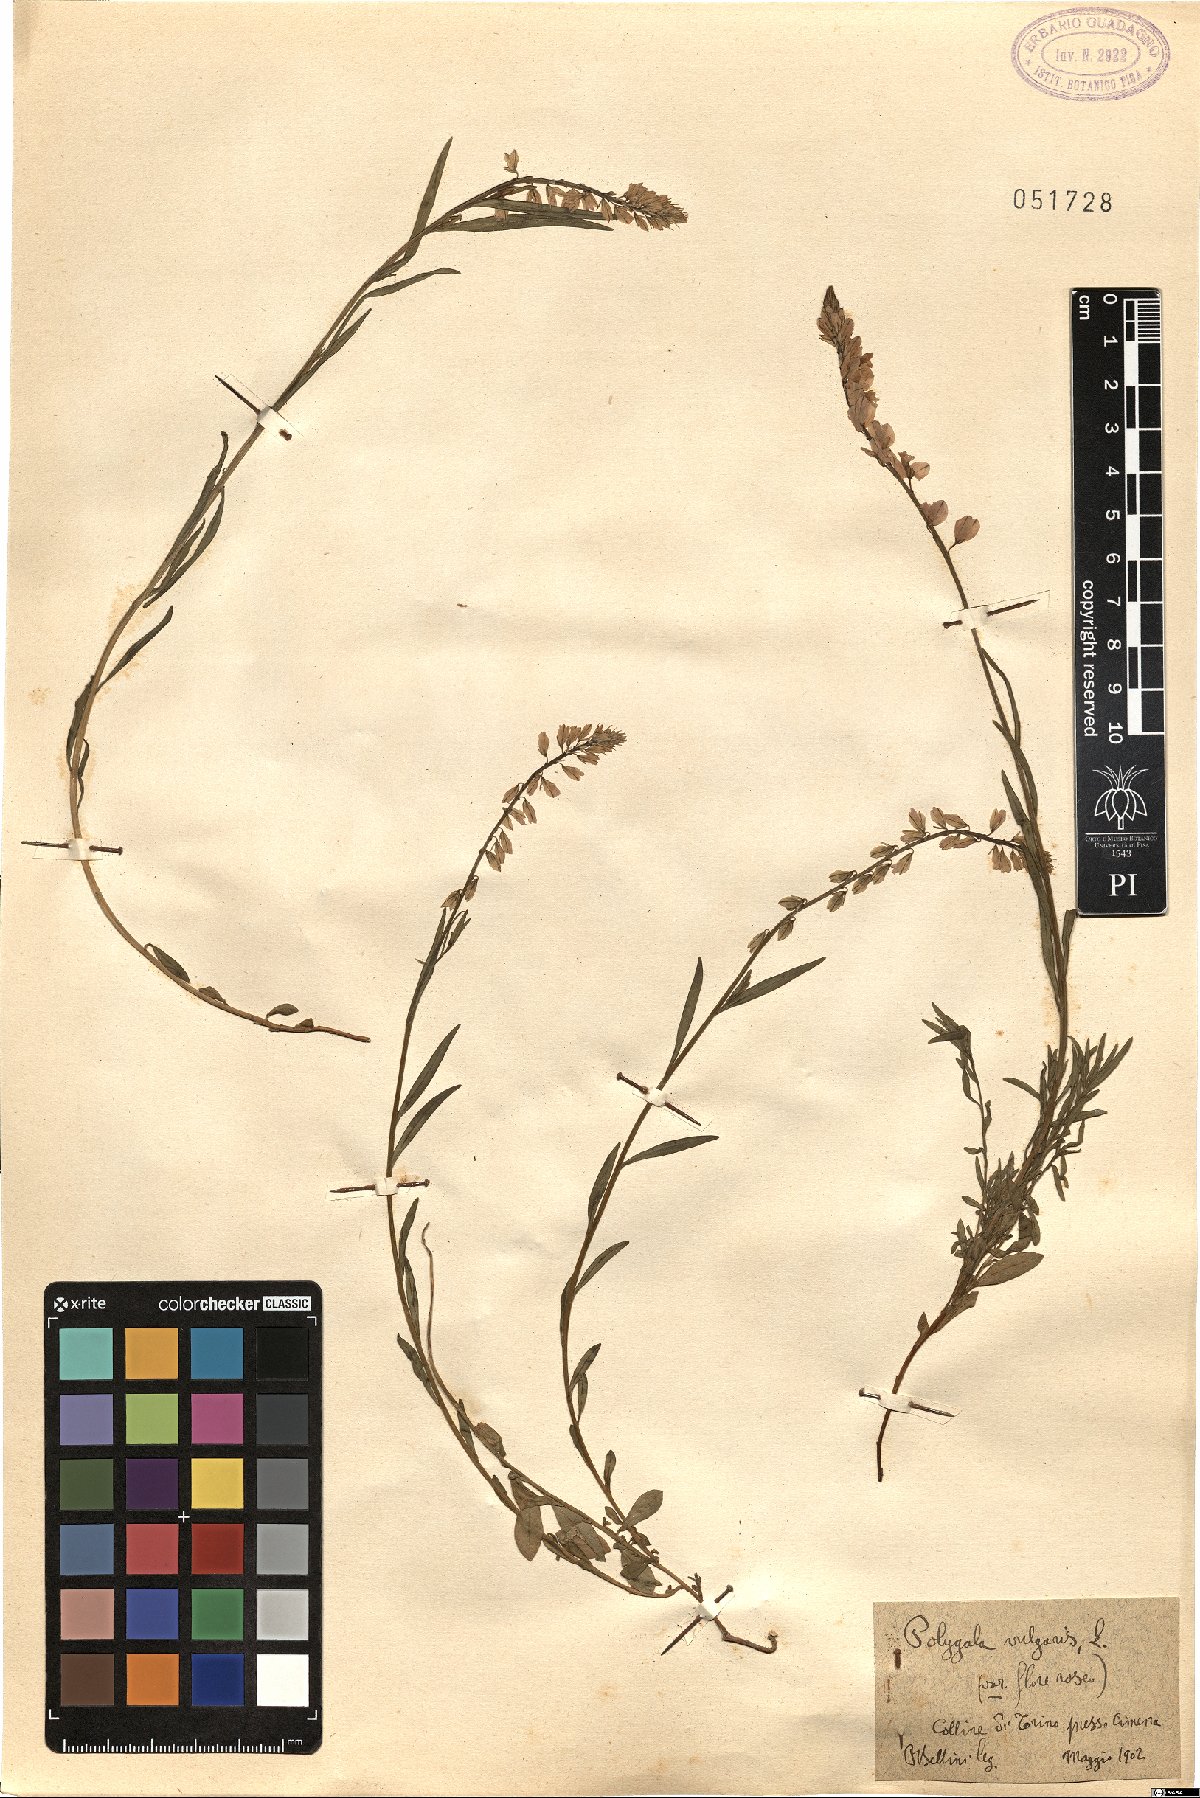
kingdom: Plantae
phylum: Tracheophyta
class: Magnoliopsida
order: Fabales
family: Polygalaceae
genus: Polygala
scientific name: Polygala vulgaris
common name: Common milkwort
